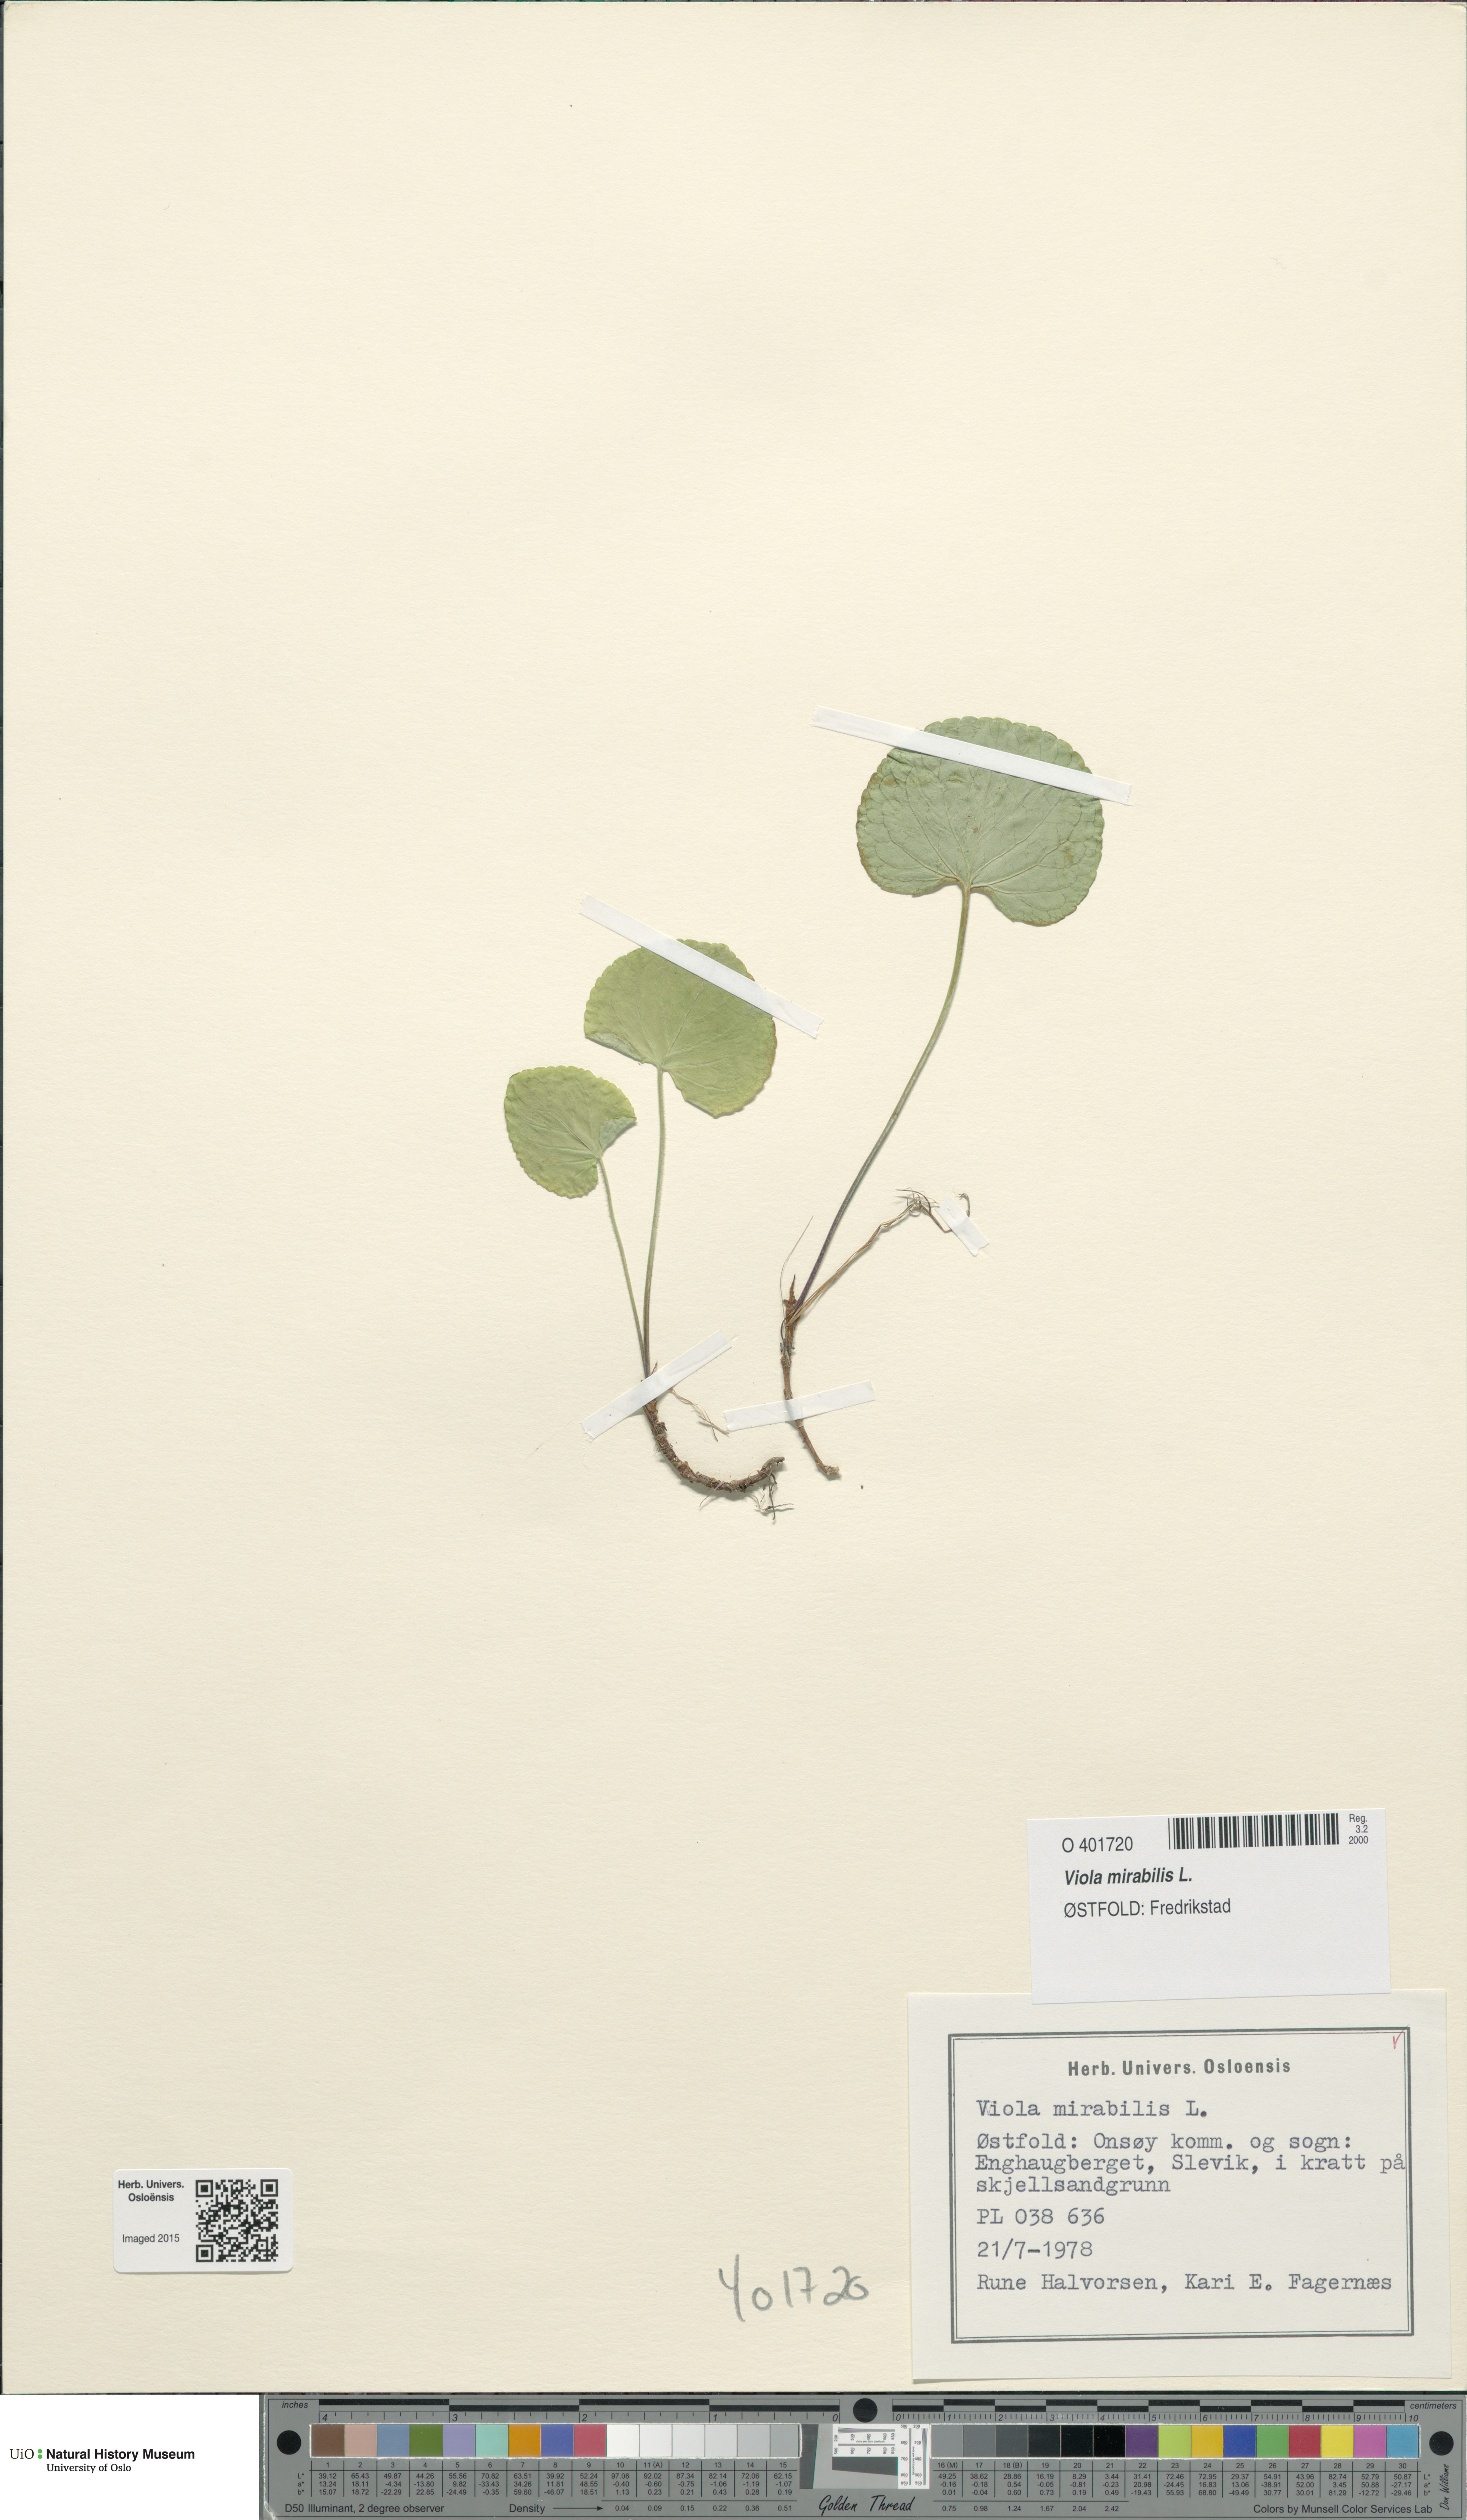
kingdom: Plantae
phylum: Tracheophyta
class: Magnoliopsida
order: Malpighiales
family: Violaceae
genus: Viola
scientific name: Viola mirabilis
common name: Wonder violet
